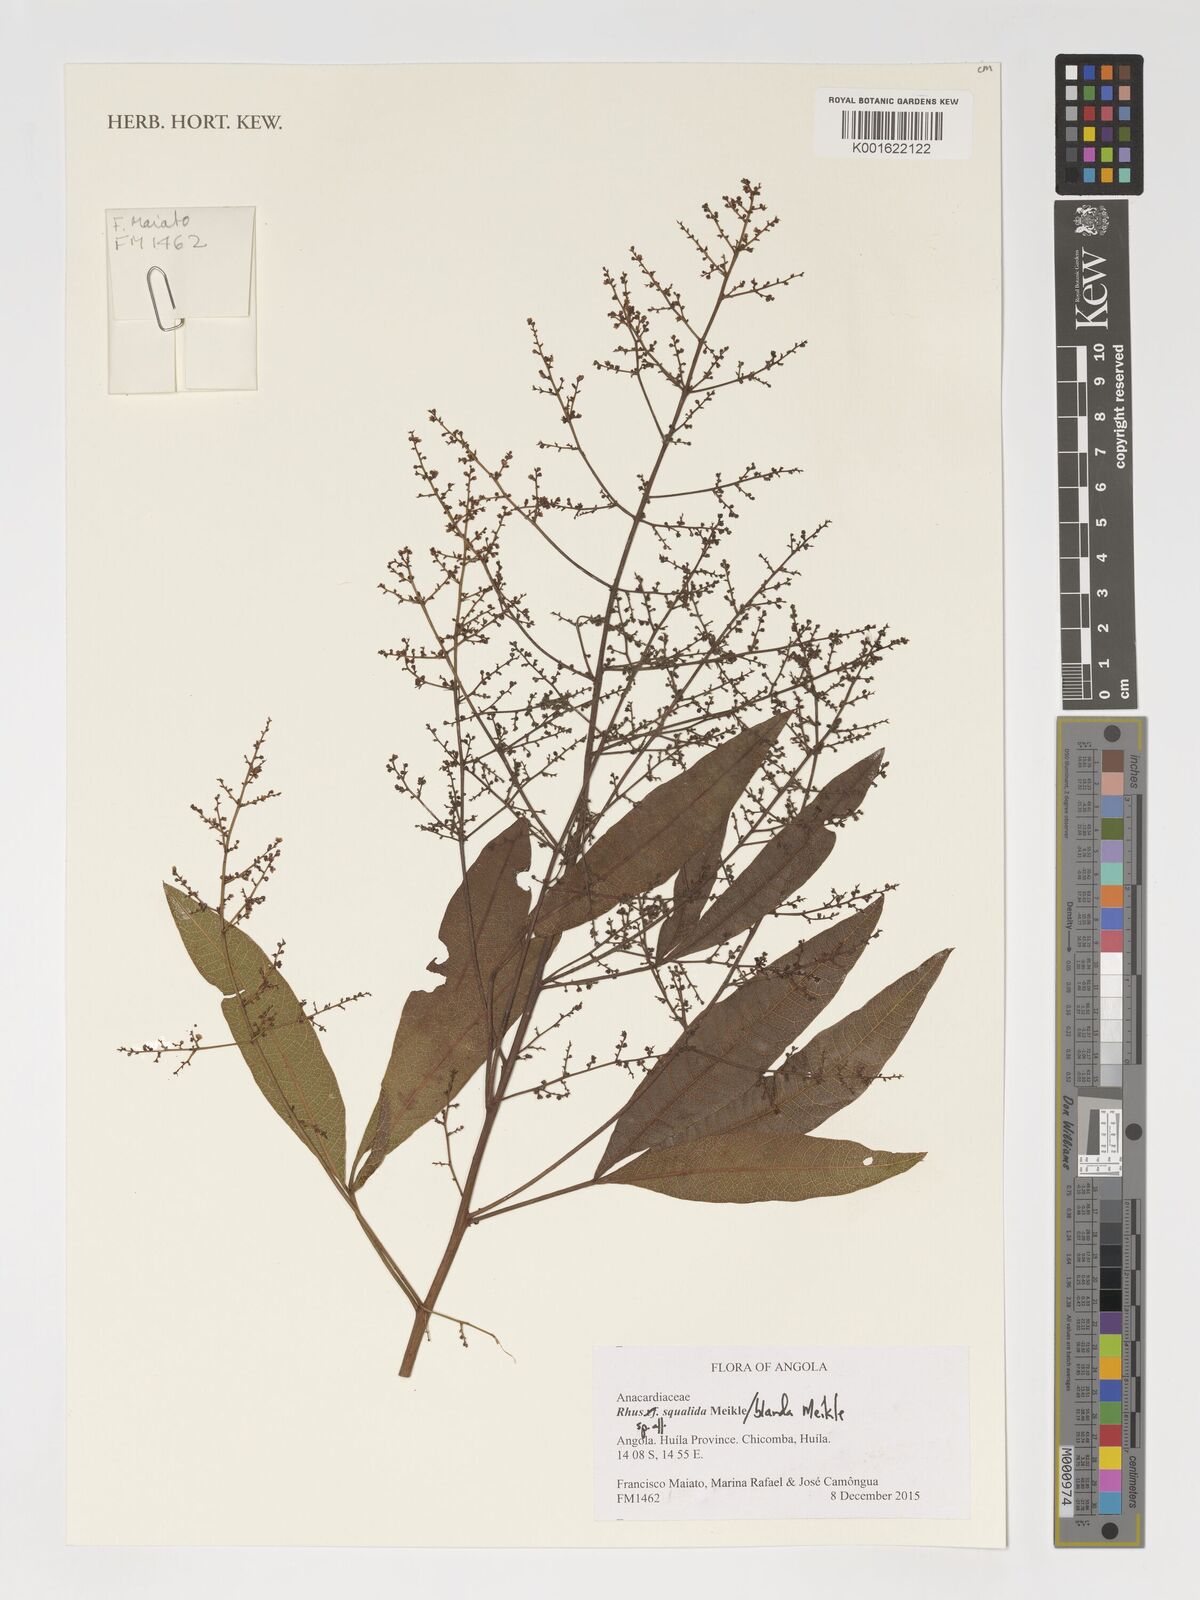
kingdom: Plantae
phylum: Tracheophyta
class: Magnoliopsida
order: Sapindales
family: Anacardiaceae
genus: Searsia
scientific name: Searsia squalida
